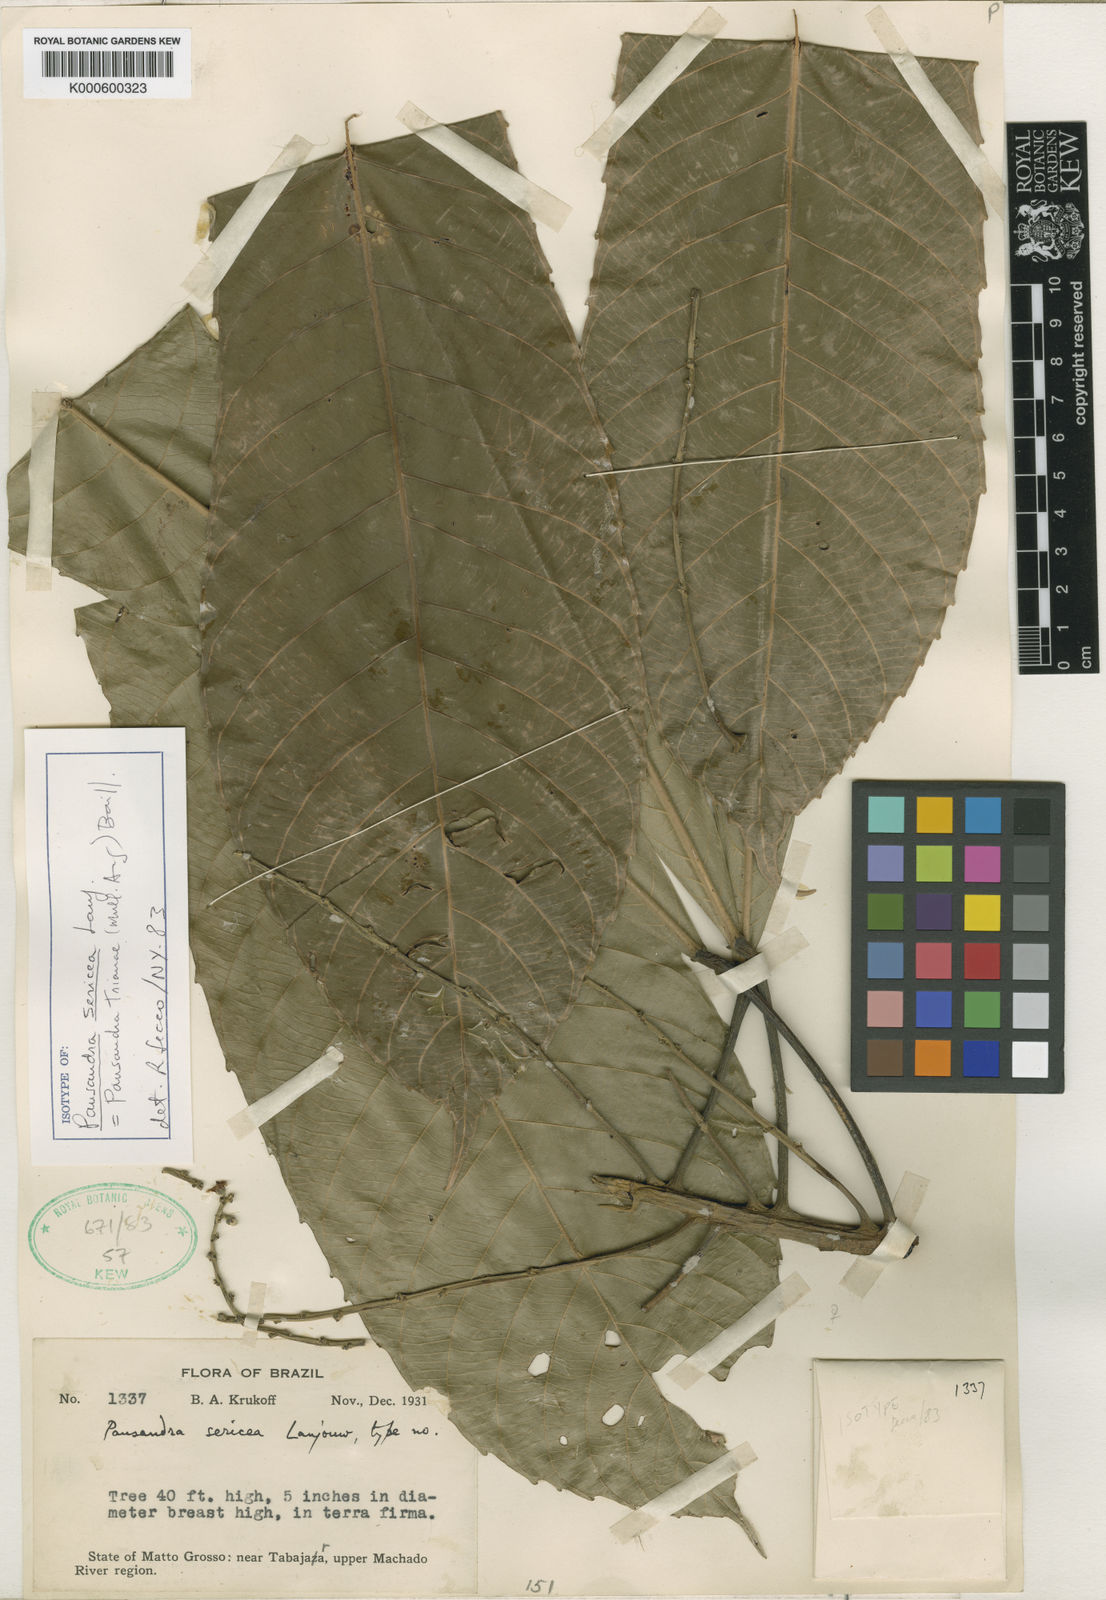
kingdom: Plantae
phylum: Tracheophyta
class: Magnoliopsida
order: Malpighiales
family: Euphorbiaceae
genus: Pausandra
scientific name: Pausandra trianae
